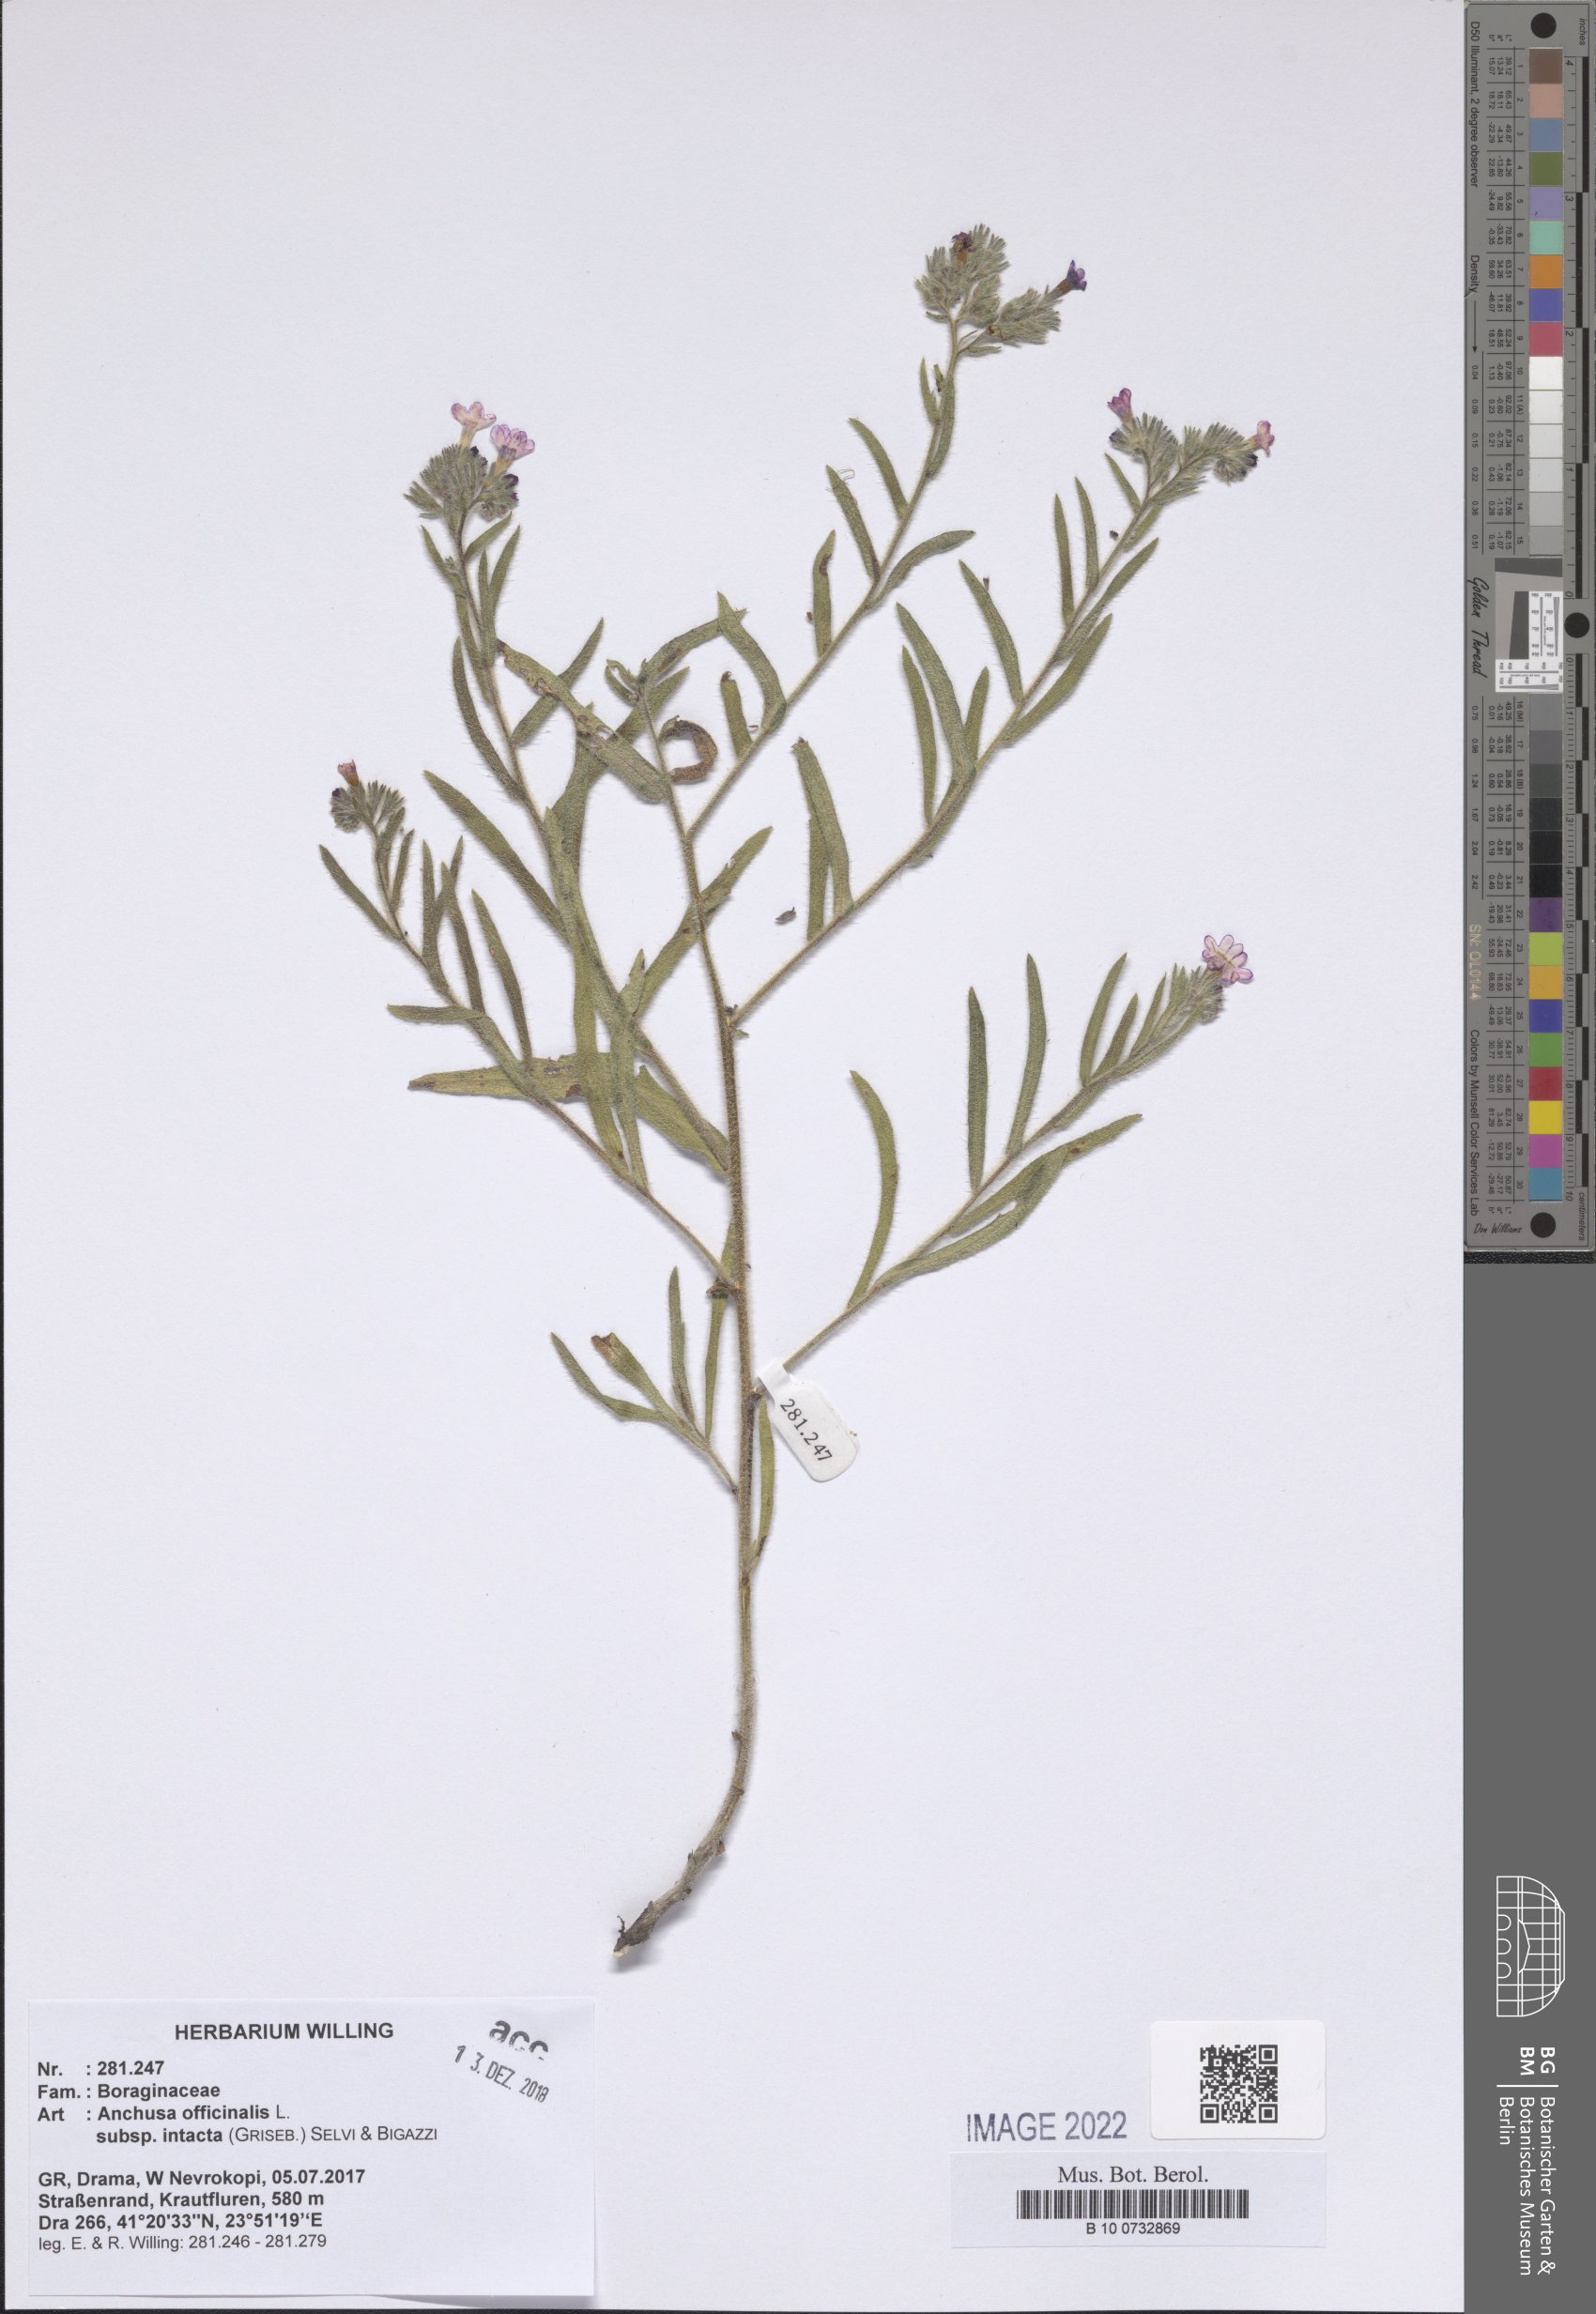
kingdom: Plantae
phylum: Tracheophyta
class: Magnoliopsida
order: Boraginales
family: Boraginaceae
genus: Anchusa
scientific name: Anchusa officinalis
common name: Alkanet
